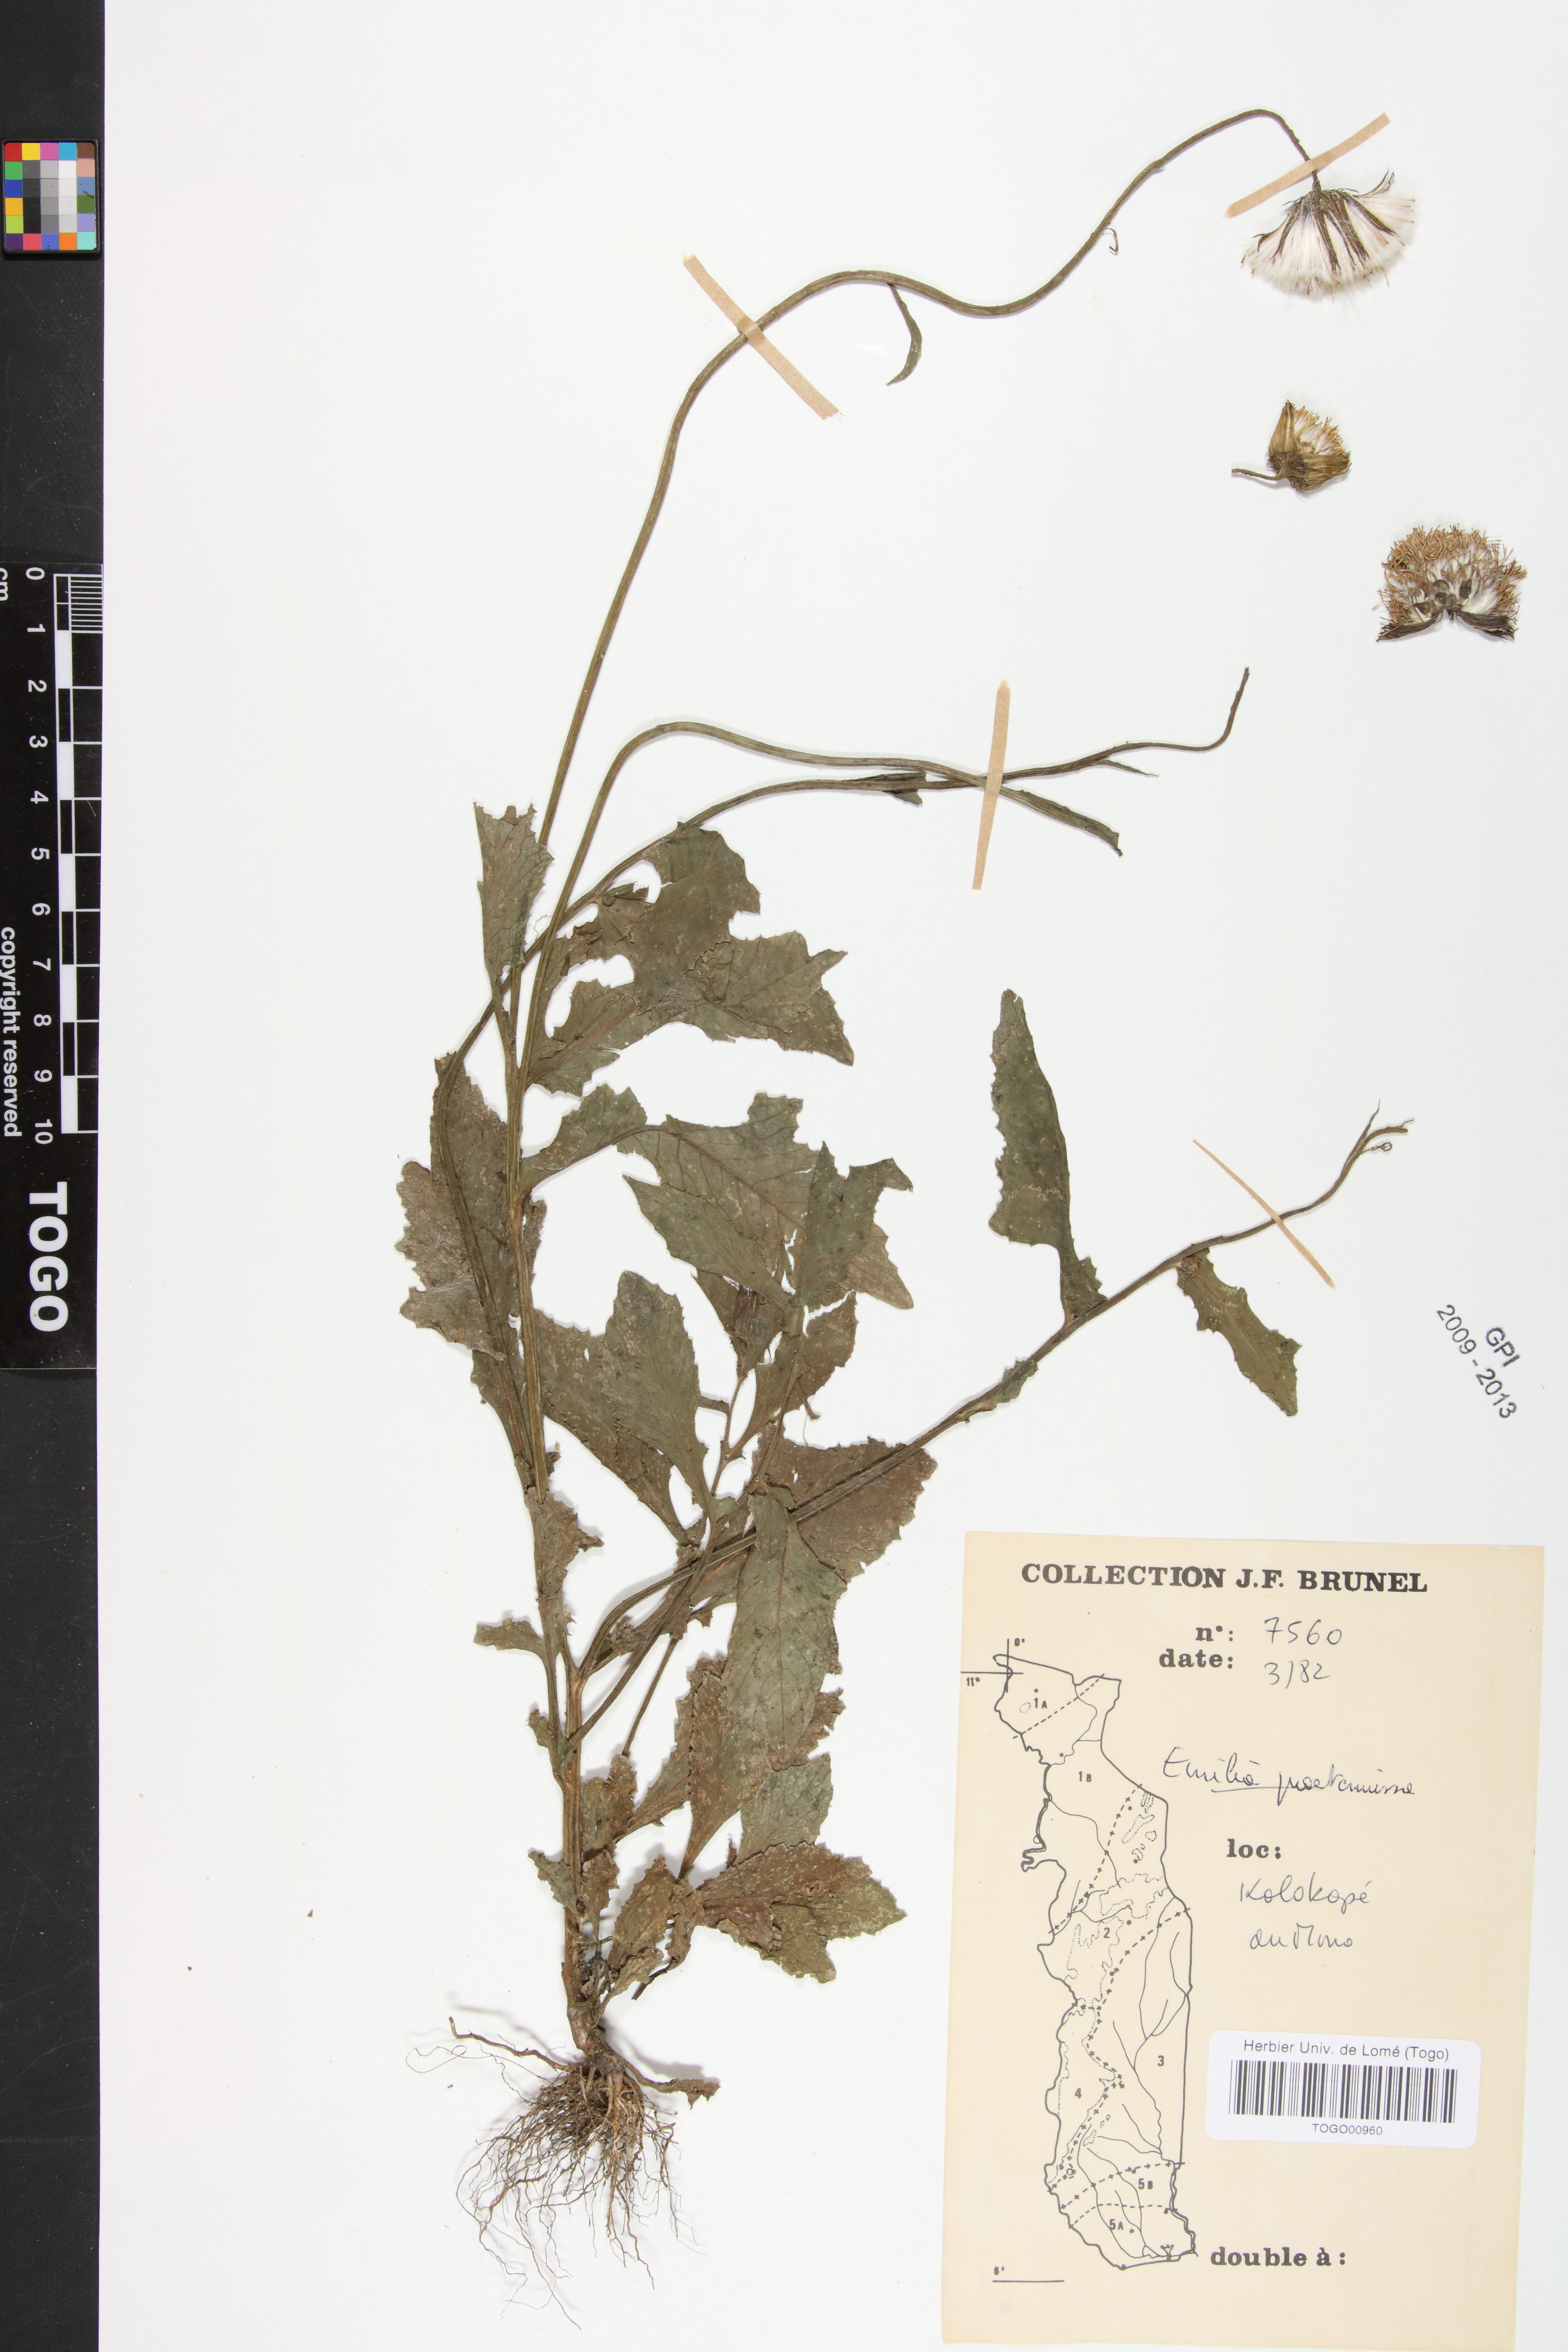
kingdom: Plantae
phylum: Tracheophyta
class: Magnoliopsida
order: Asterales
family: Asteraceae
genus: Emilia
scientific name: Emilia abyssinica
